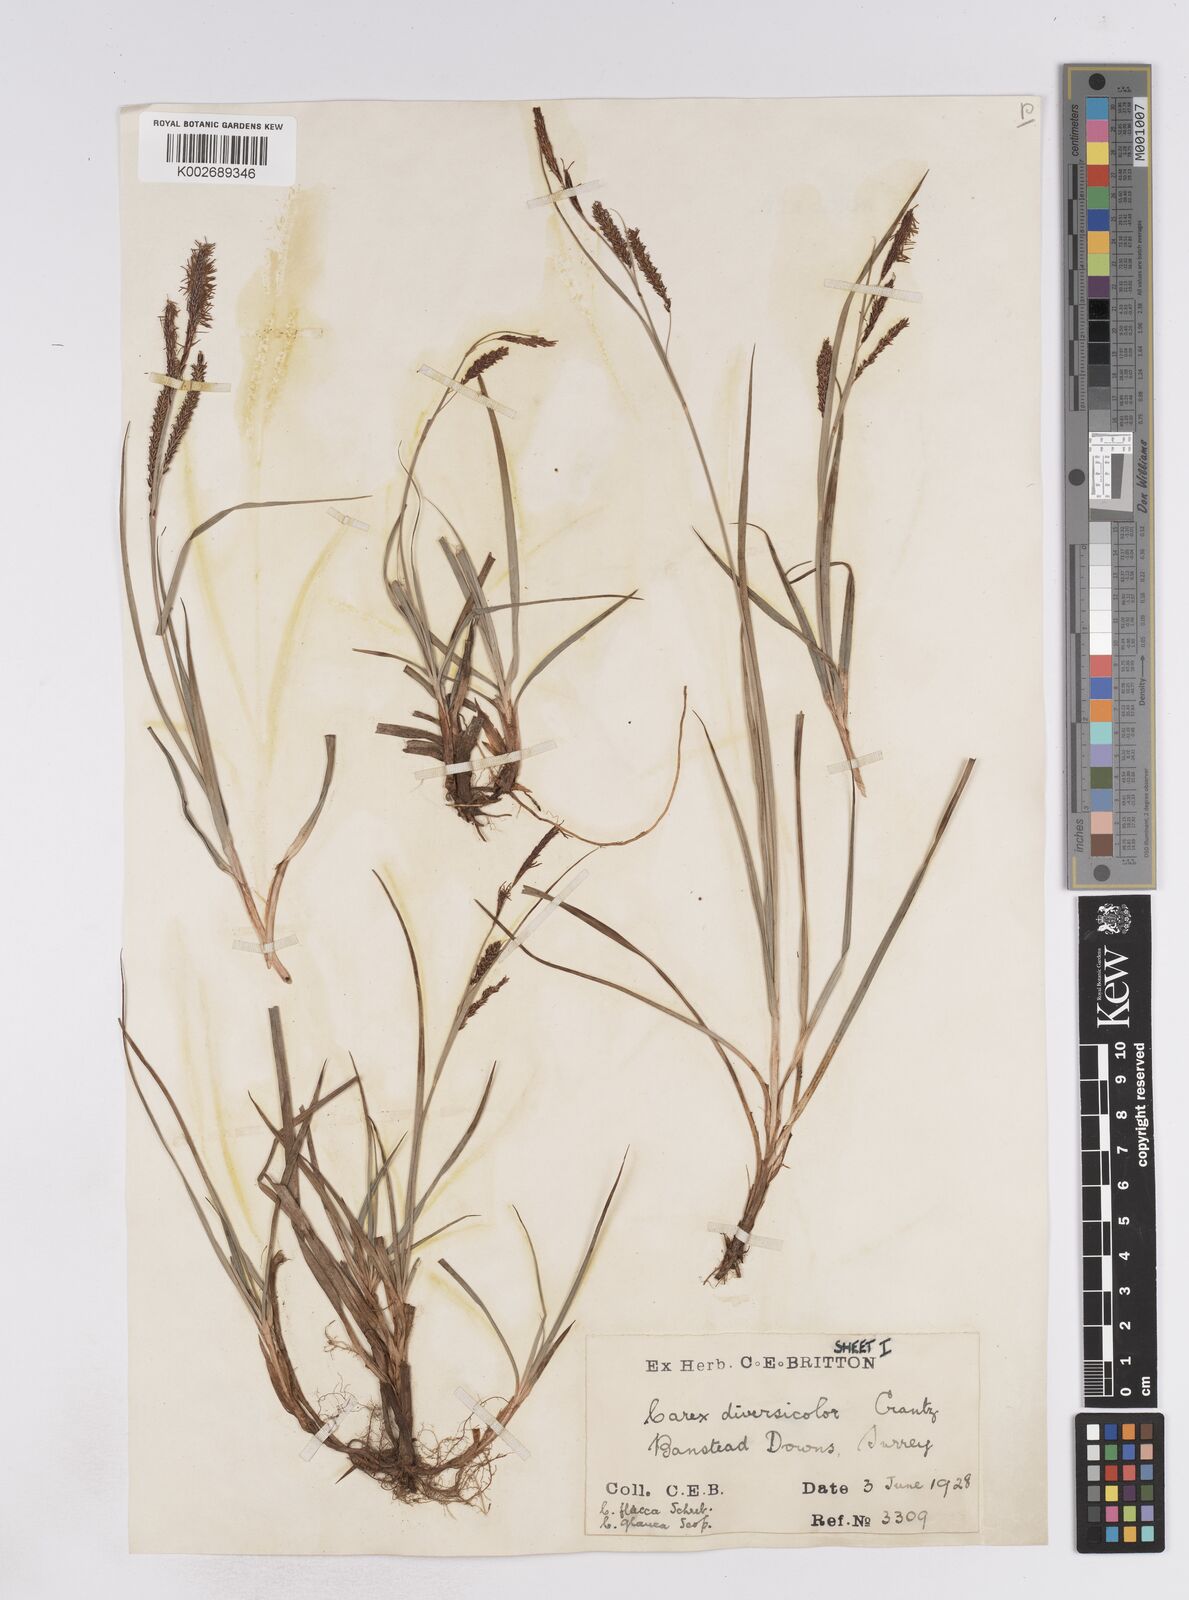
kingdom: Plantae
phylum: Tracheophyta
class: Liliopsida
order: Poales
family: Cyperaceae
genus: Carex
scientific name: Carex flacca
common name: Glaucous sedge
